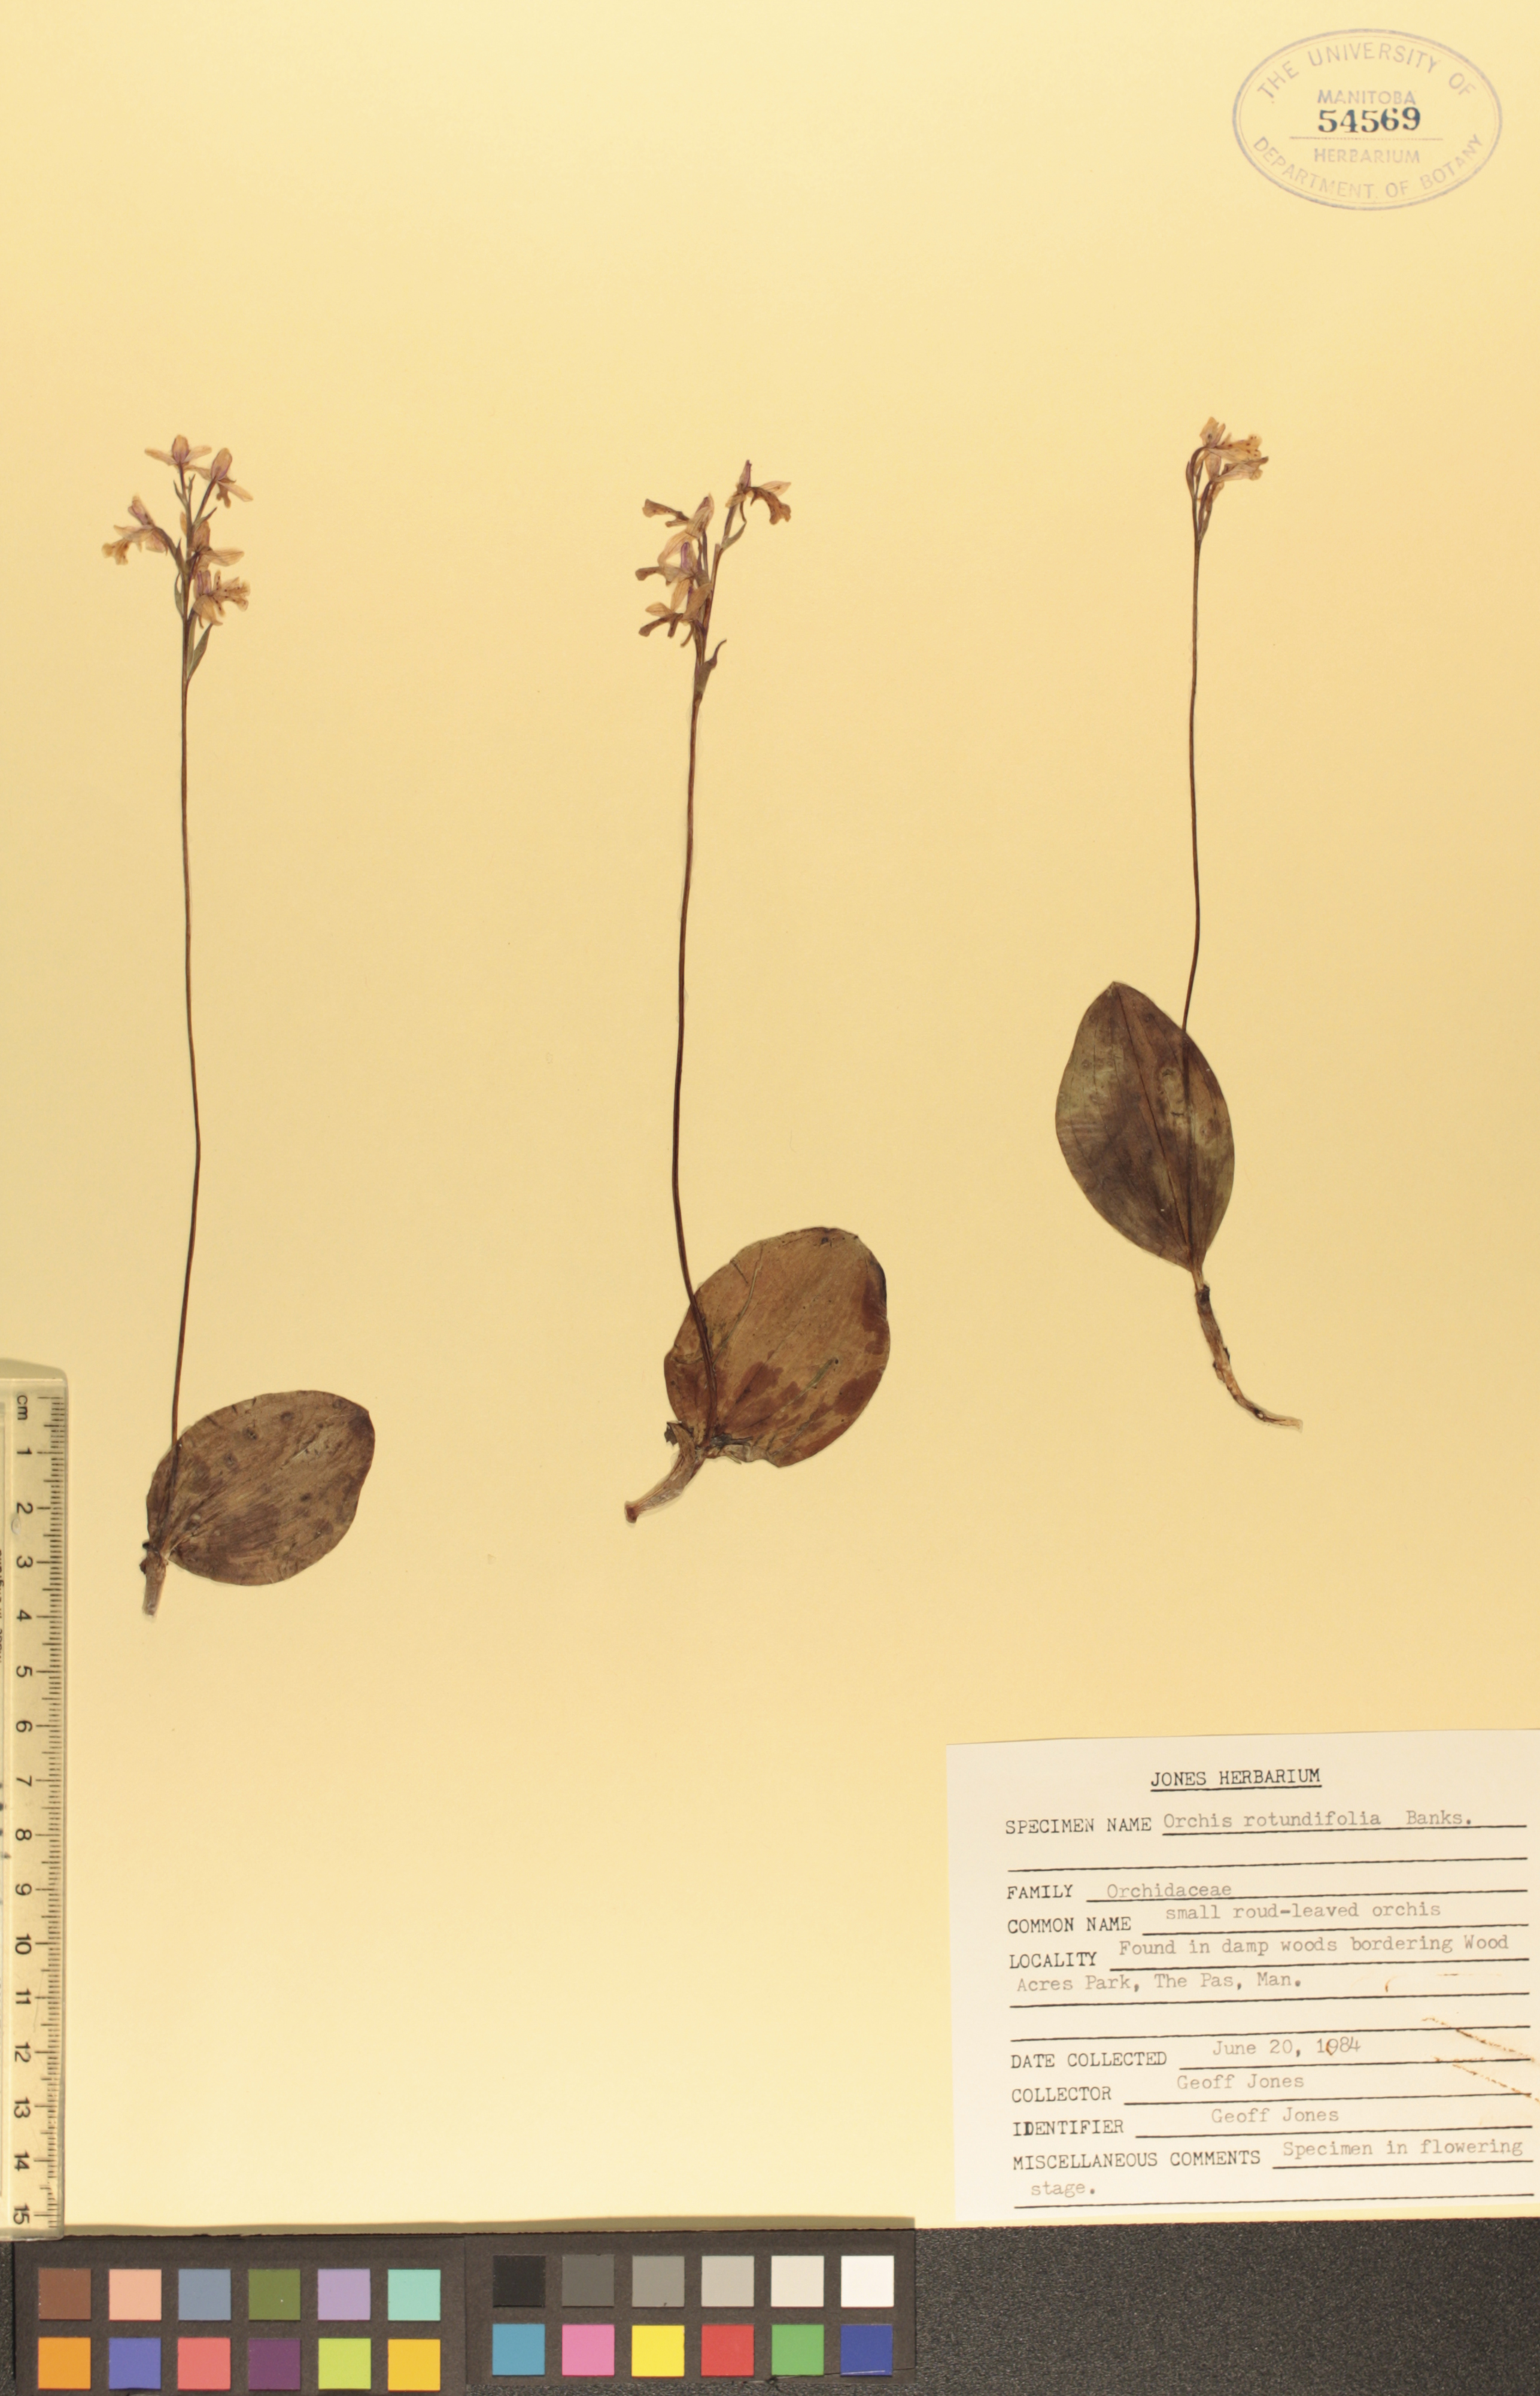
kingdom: Plantae
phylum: Tracheophyta
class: Liliopsida
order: Asparagales
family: Orchidaceae
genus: Galearis
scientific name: Galearis rotundifolia
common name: One-leaved orchis
